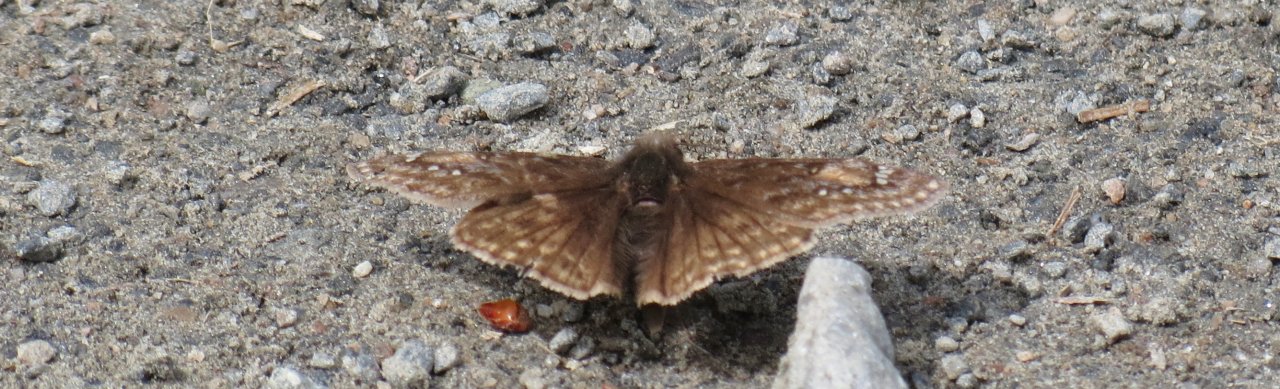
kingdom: Animalia
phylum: Arthropoda
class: Insecta
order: Lepidoptera
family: Hesperiidae
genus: Gesta
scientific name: Gesta
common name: Juvenal's Duskywing
